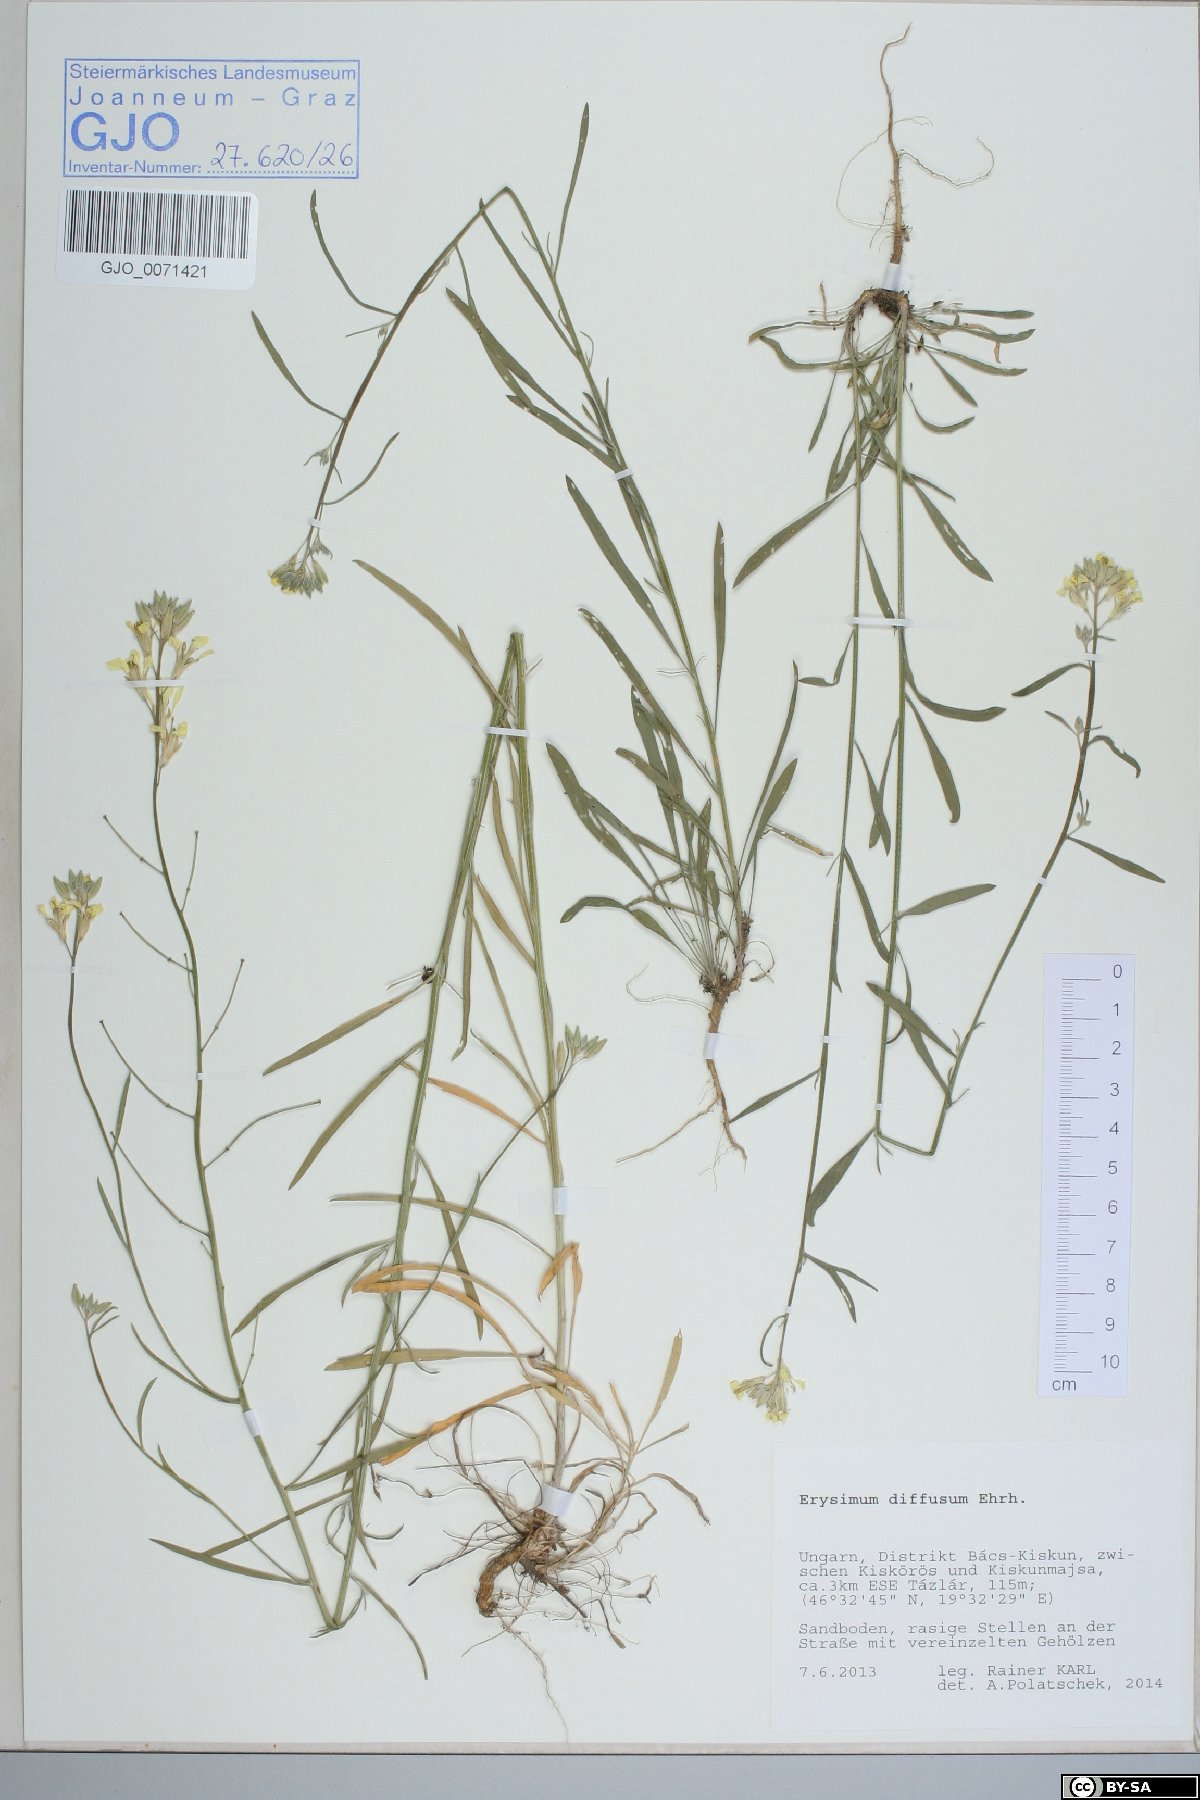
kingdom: Plantae
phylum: Tracheophyta
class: Magnoliopsida
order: Brassicales
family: Brassicaceae
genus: Erysimum
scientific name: Erysimum diffusum
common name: Diffuse wallflower
